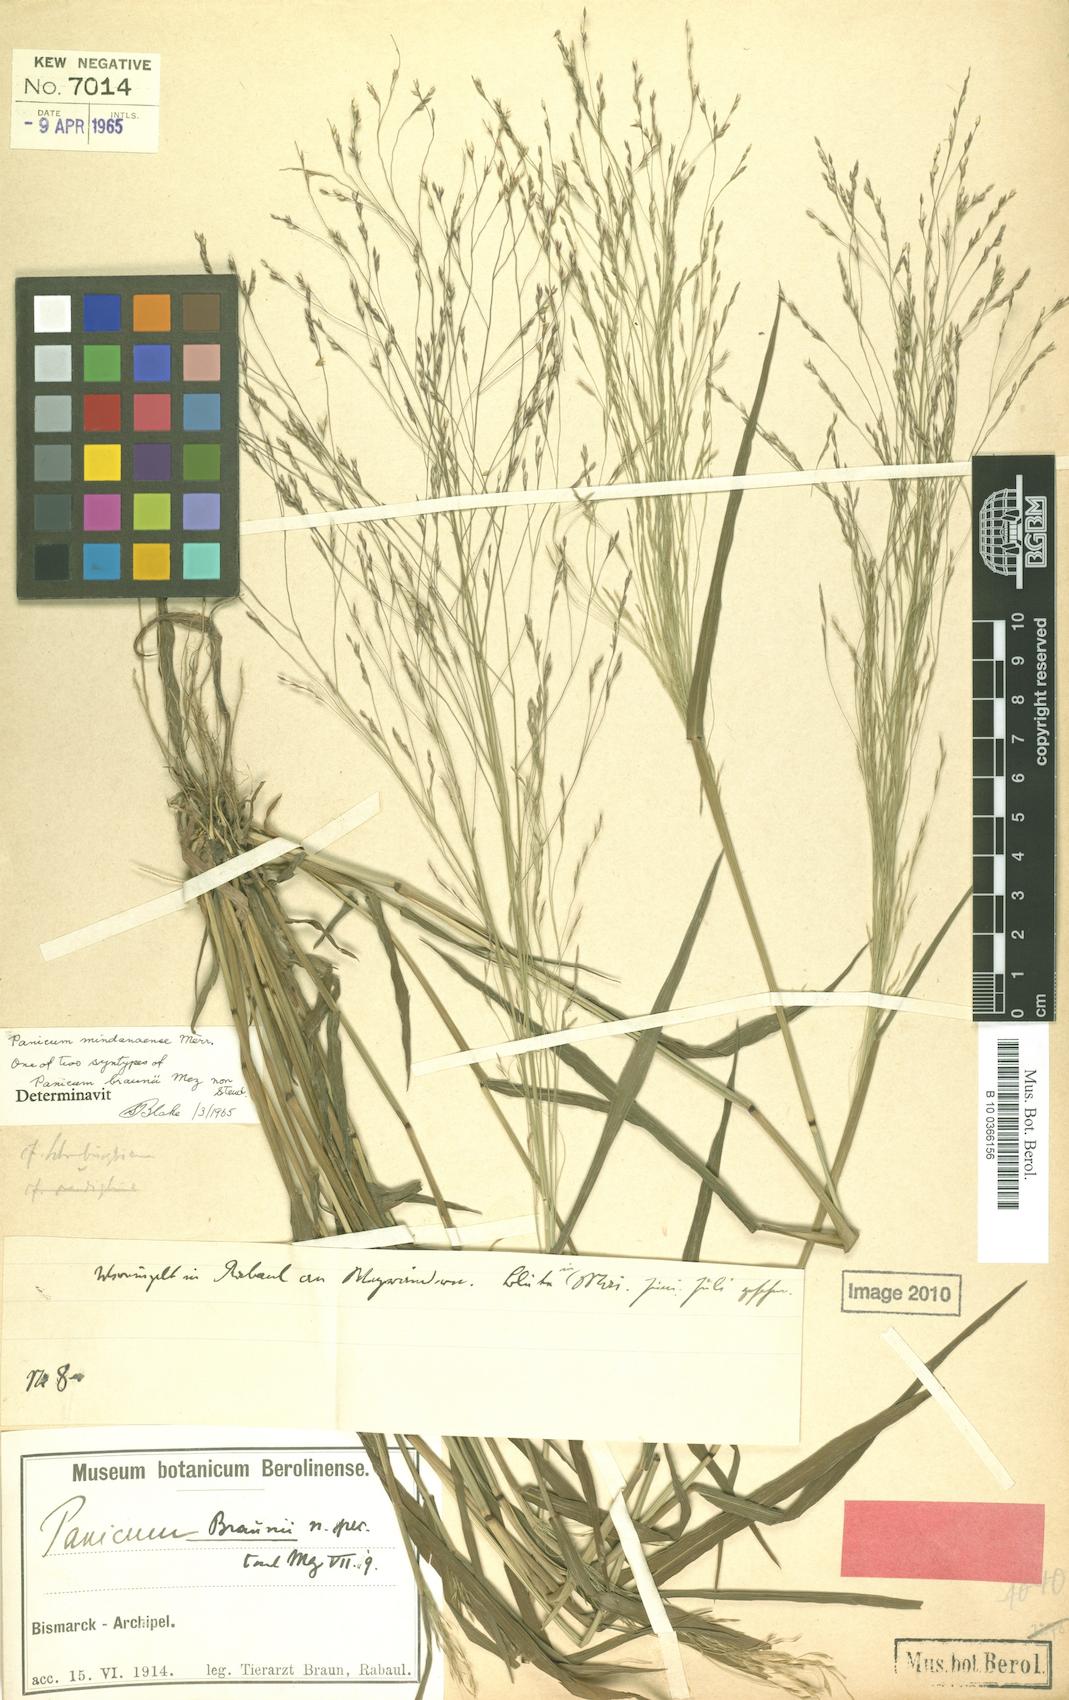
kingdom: Plantae
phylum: Tracheophyta
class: Liliopsida
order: Poales
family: Poaceae
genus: Panicum
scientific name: Panicum seminudum
